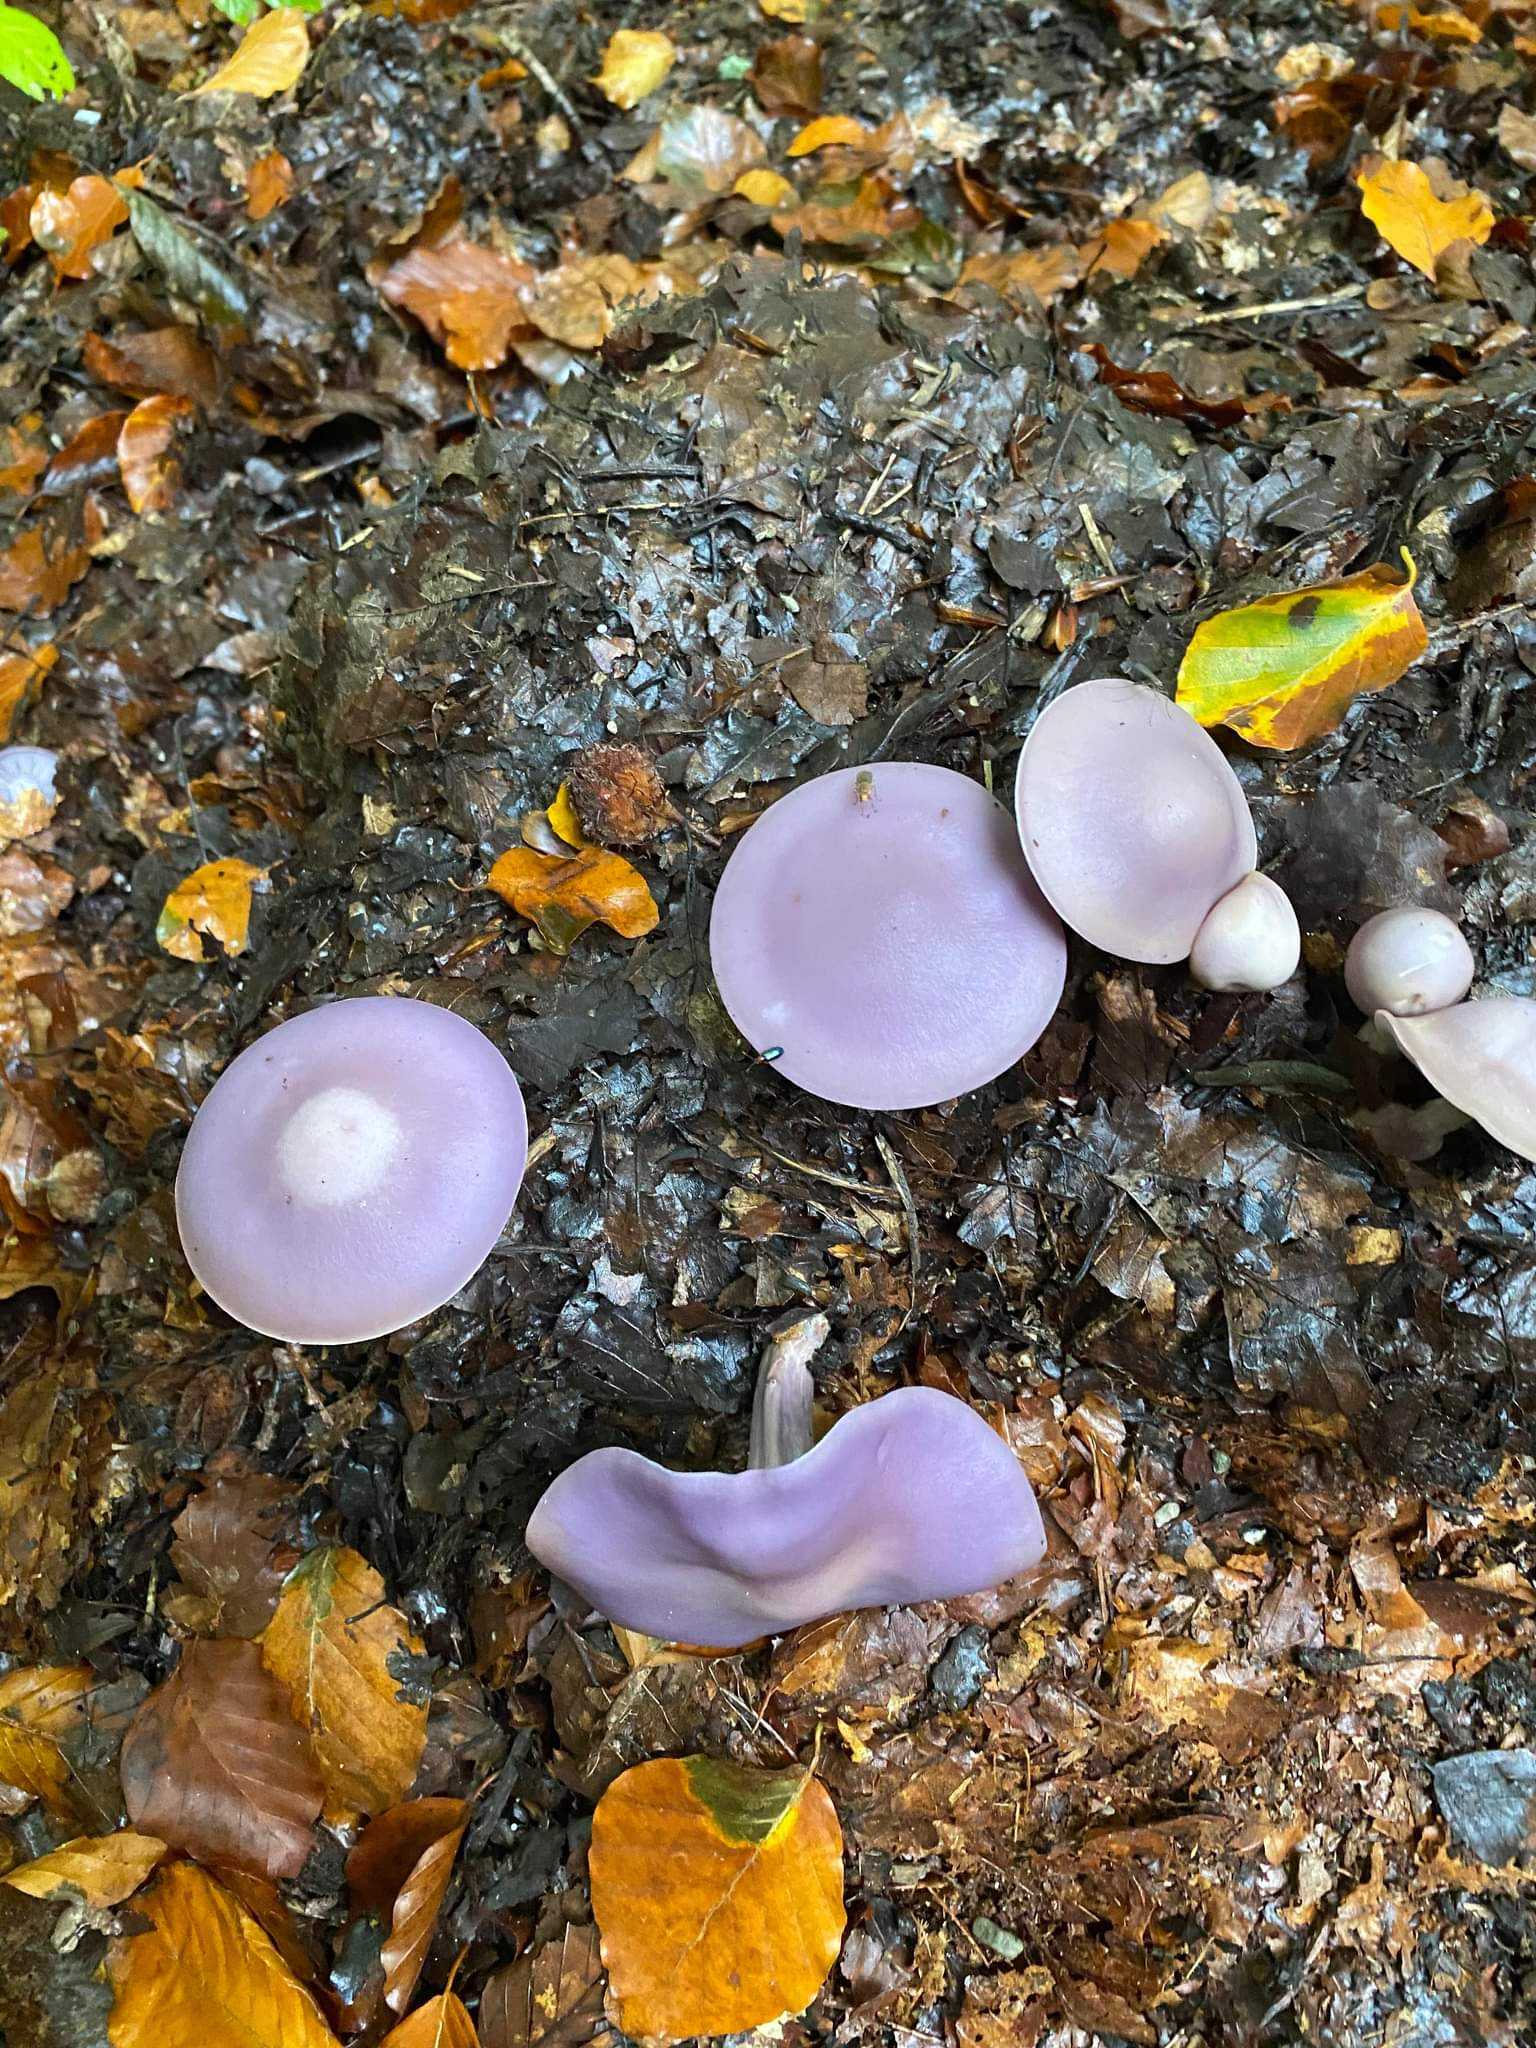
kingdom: Fungi
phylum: Basidiomycota
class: Agaricomycetes
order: Agaricales
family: Tricholomataceae
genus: Lepista
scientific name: Lepista lilacea
